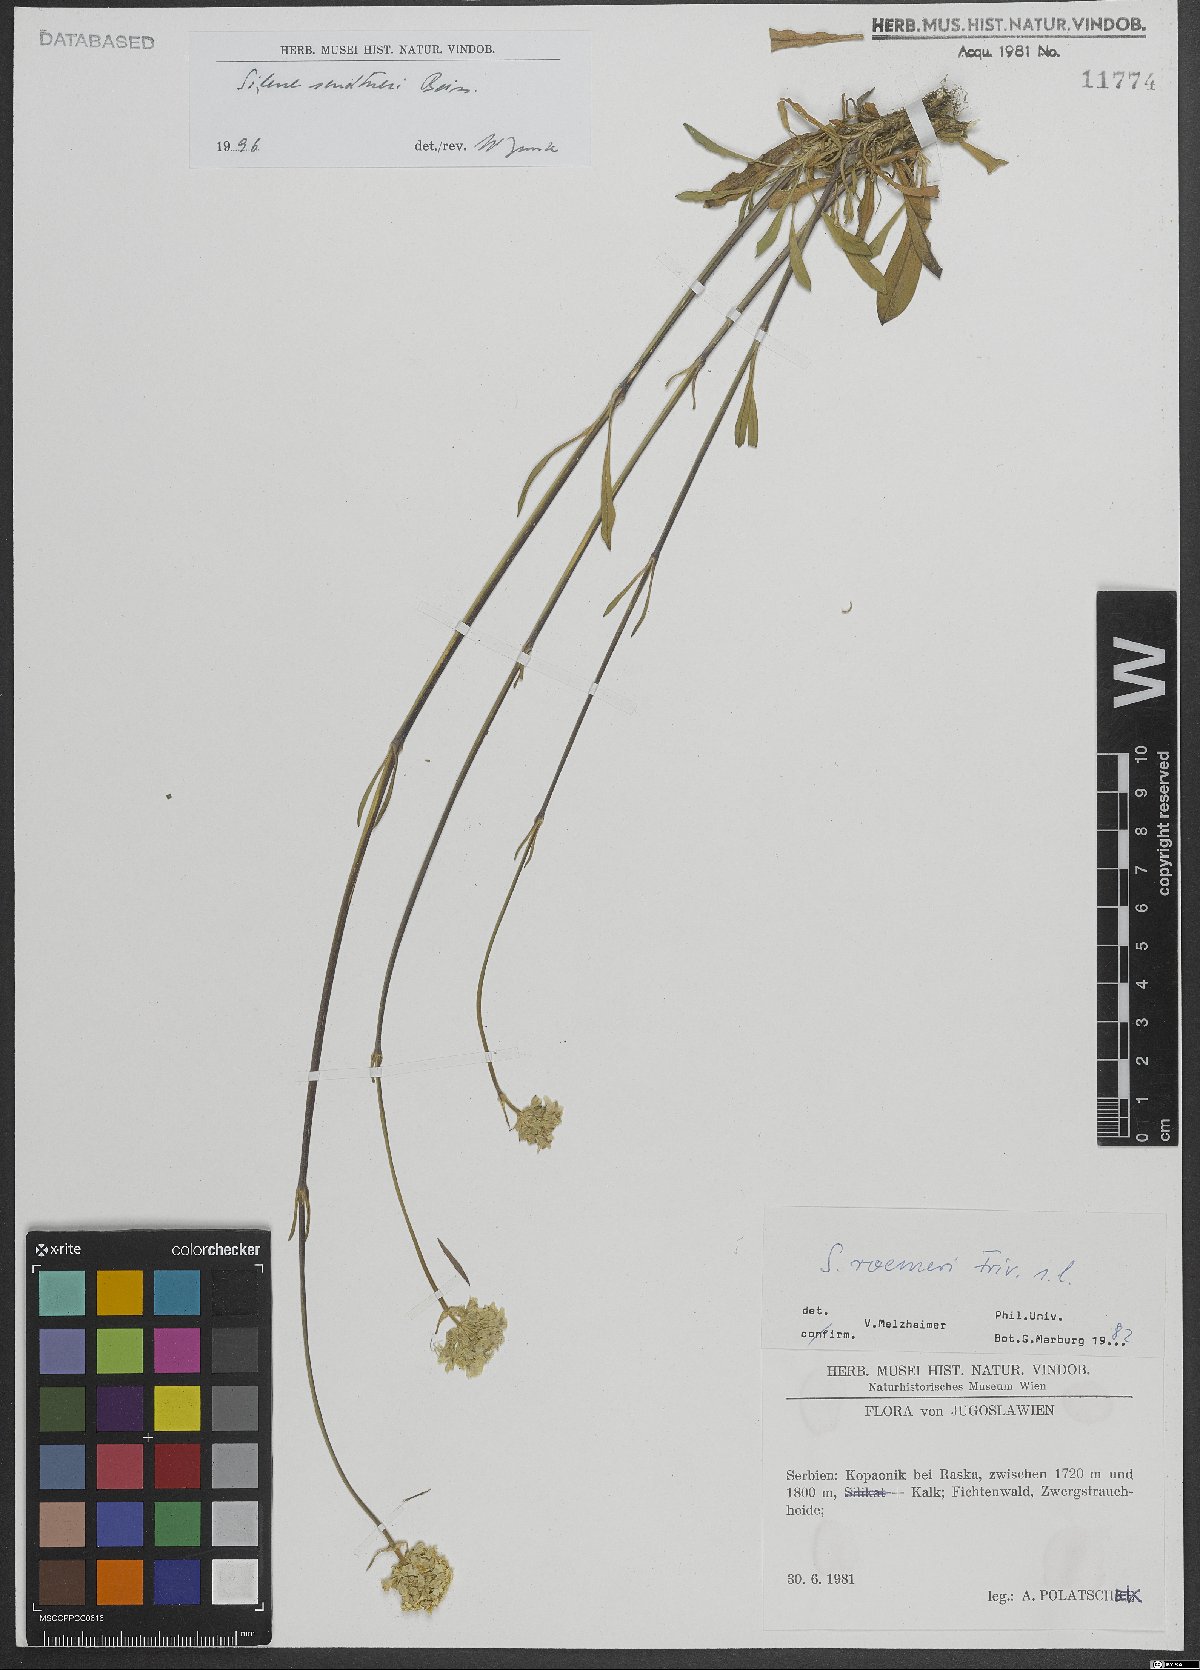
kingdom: Plantae
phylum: Tracheophyta
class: Magnoliopsida
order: Caryophyllales
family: Caryophyllaceae
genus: Silene
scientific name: Silene sendtneri
